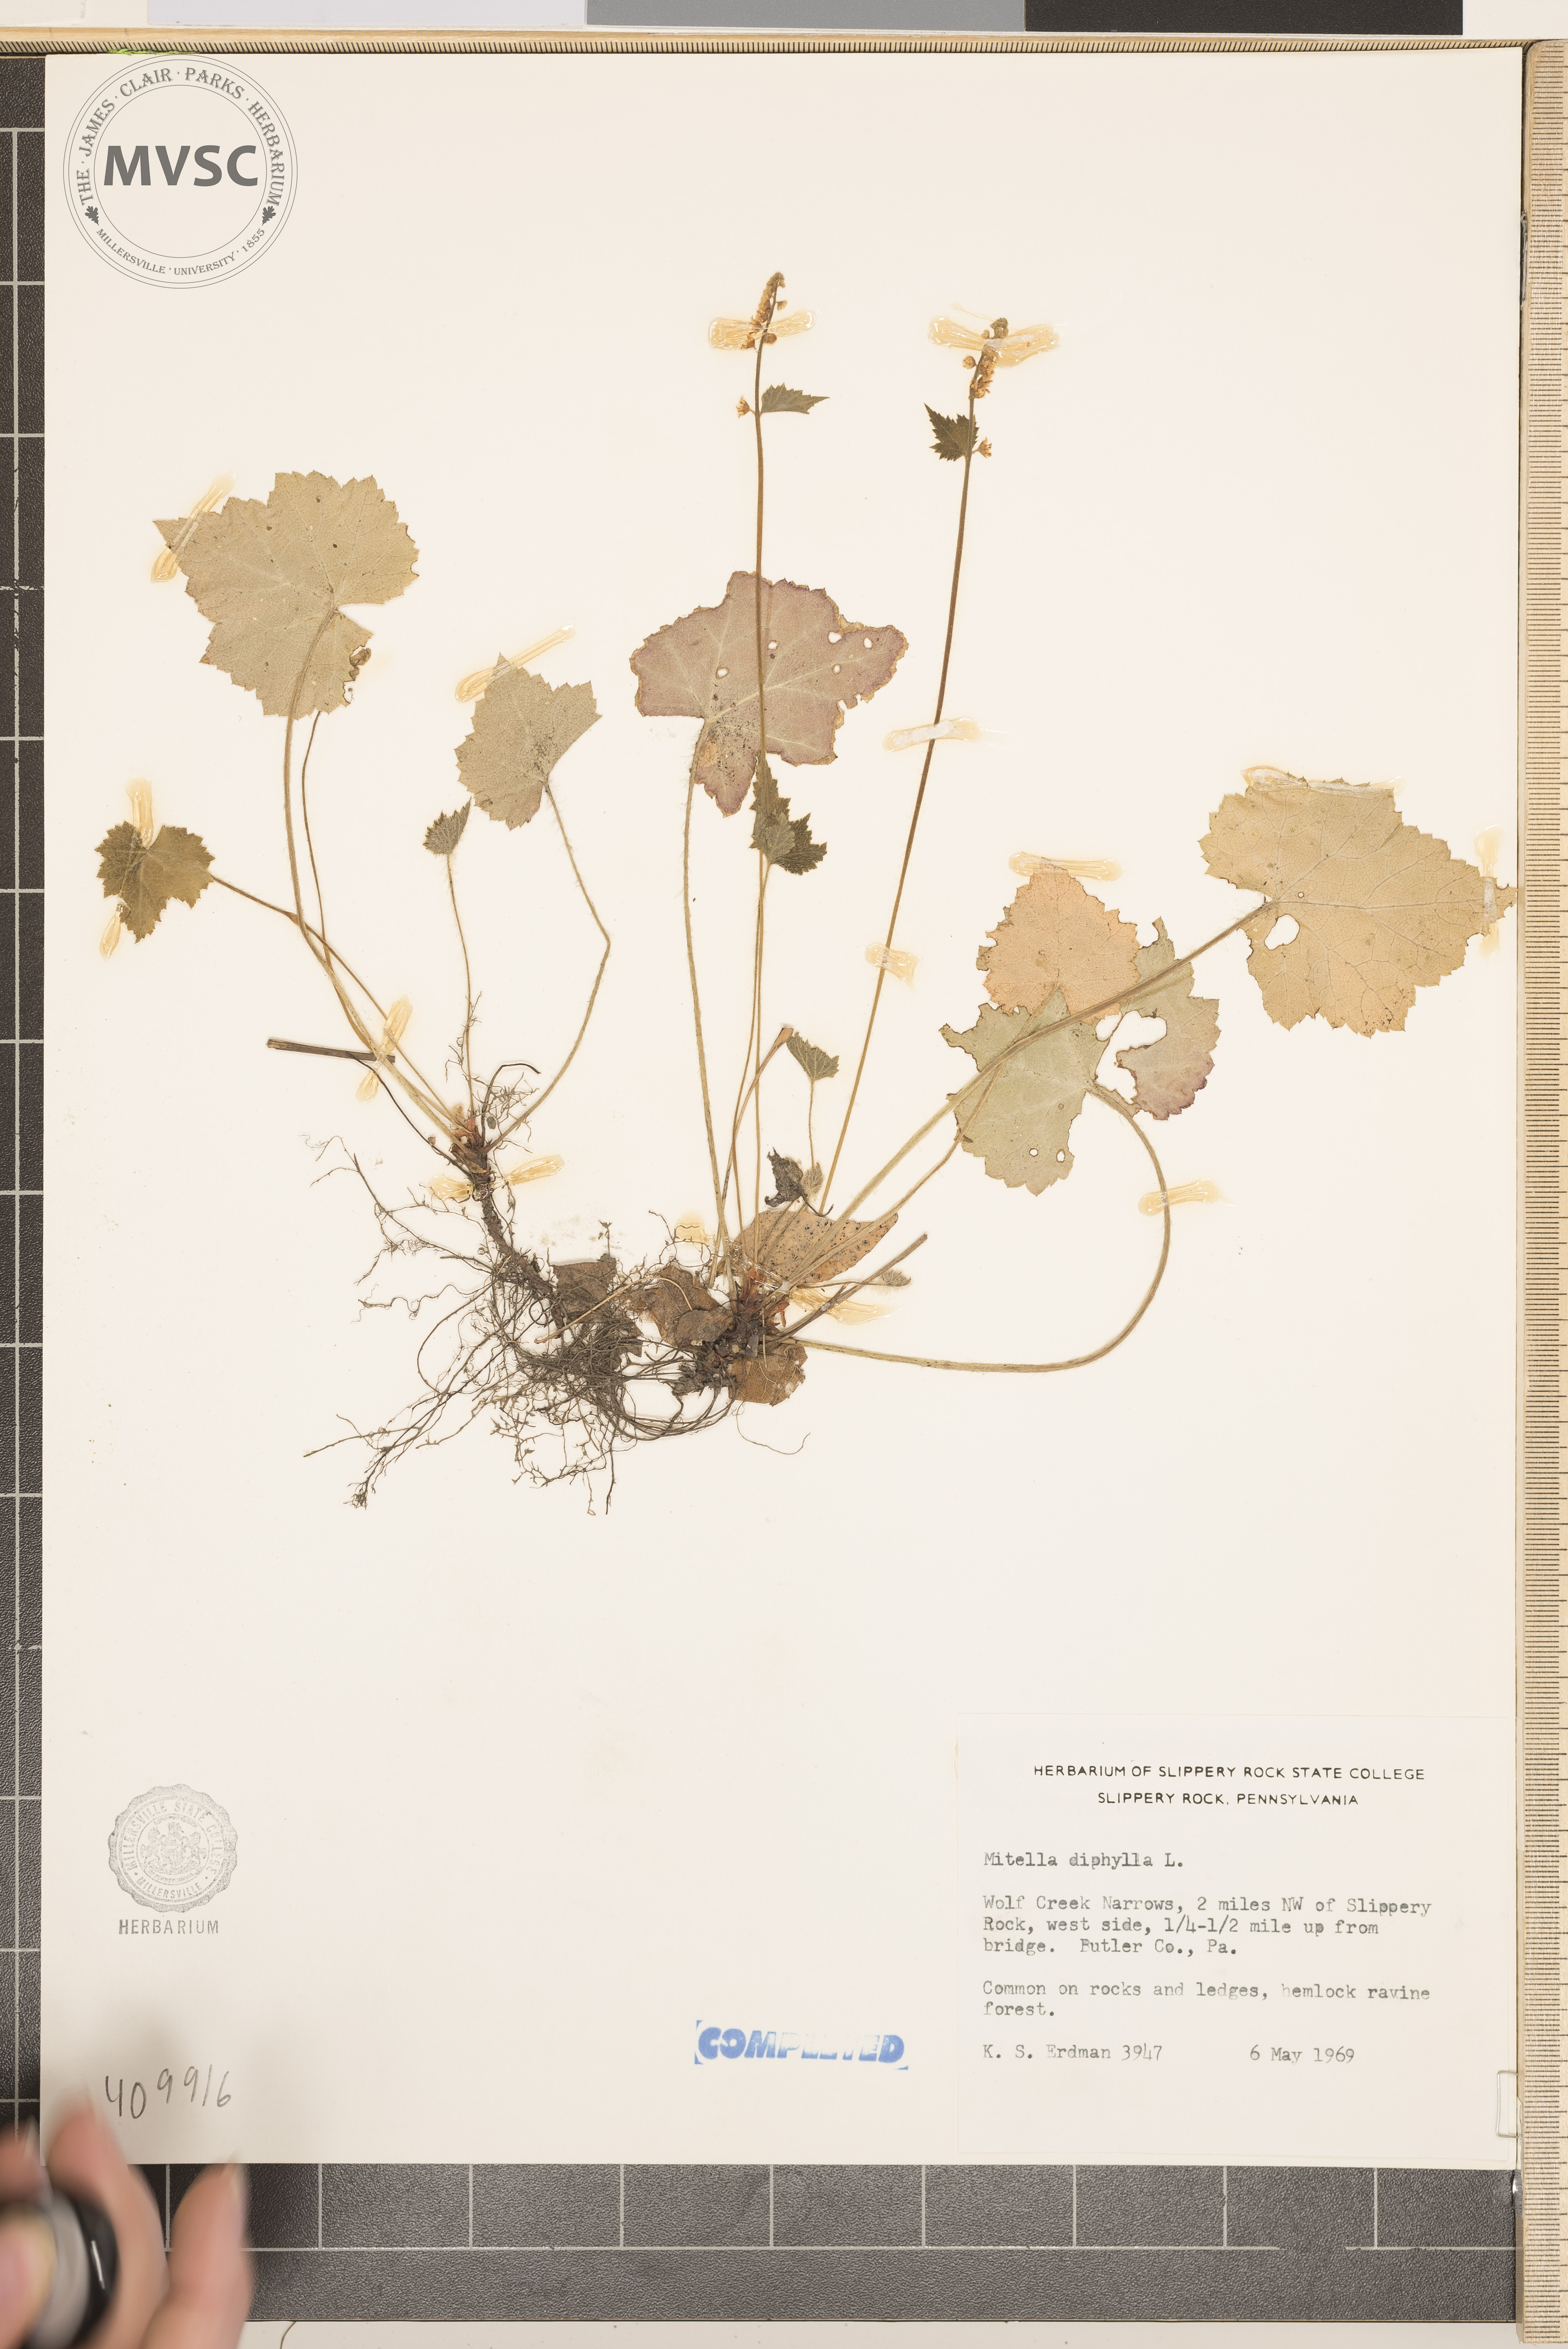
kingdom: Plantae
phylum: Tracheophyta
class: Magnoliopsida
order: Saxifragales
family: Saxifragaceae
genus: Mitella
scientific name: Mitella diphylla
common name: Coolwort
